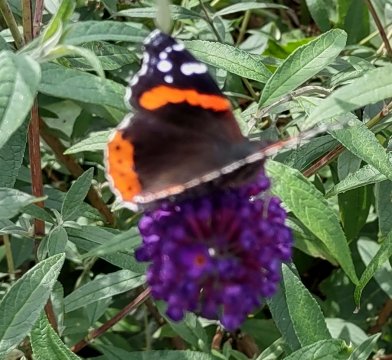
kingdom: Animalia
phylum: Arthropoda
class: Insecta
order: Lepidoptera
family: Nymphalidae
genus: Vanessa
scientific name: Vanessa atalanta
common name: Red Admiral
